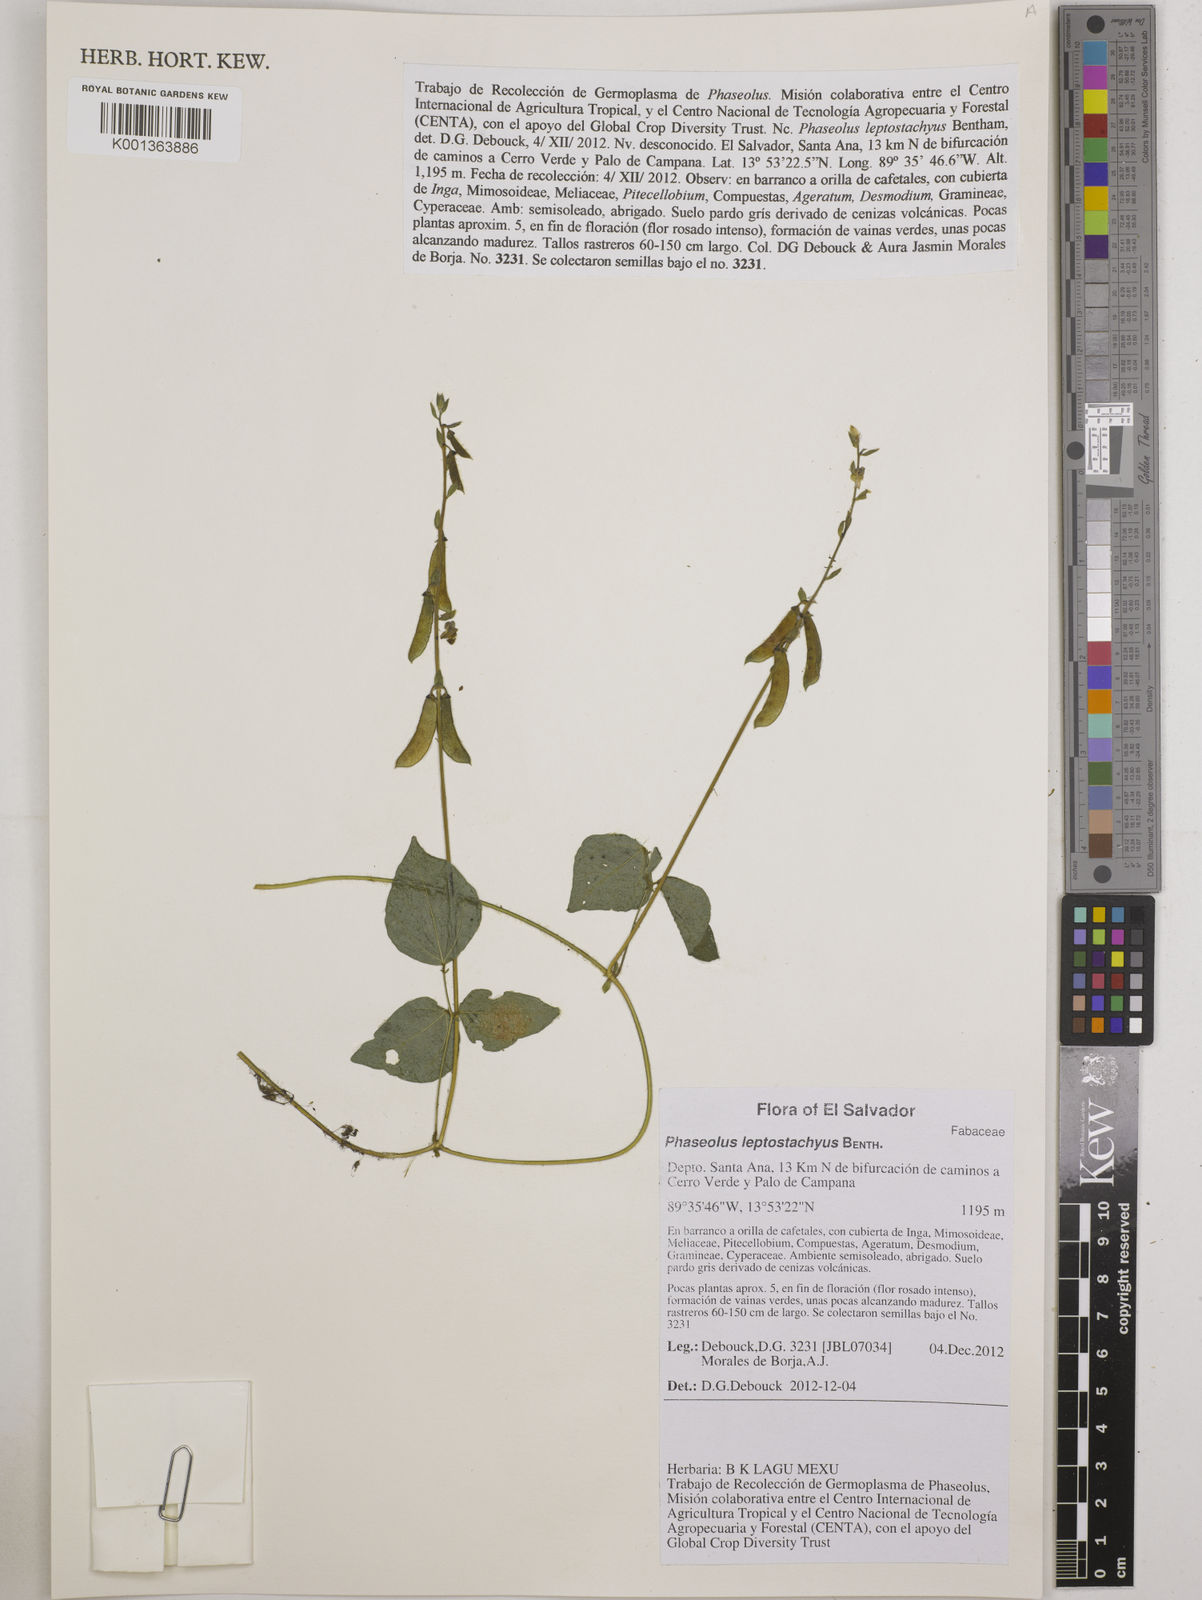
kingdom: Plantae
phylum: Tracheophyta
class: Magnoliopsida
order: Fabales
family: Fabaceae
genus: Phaseolus
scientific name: Phaseolus leptostachyus
